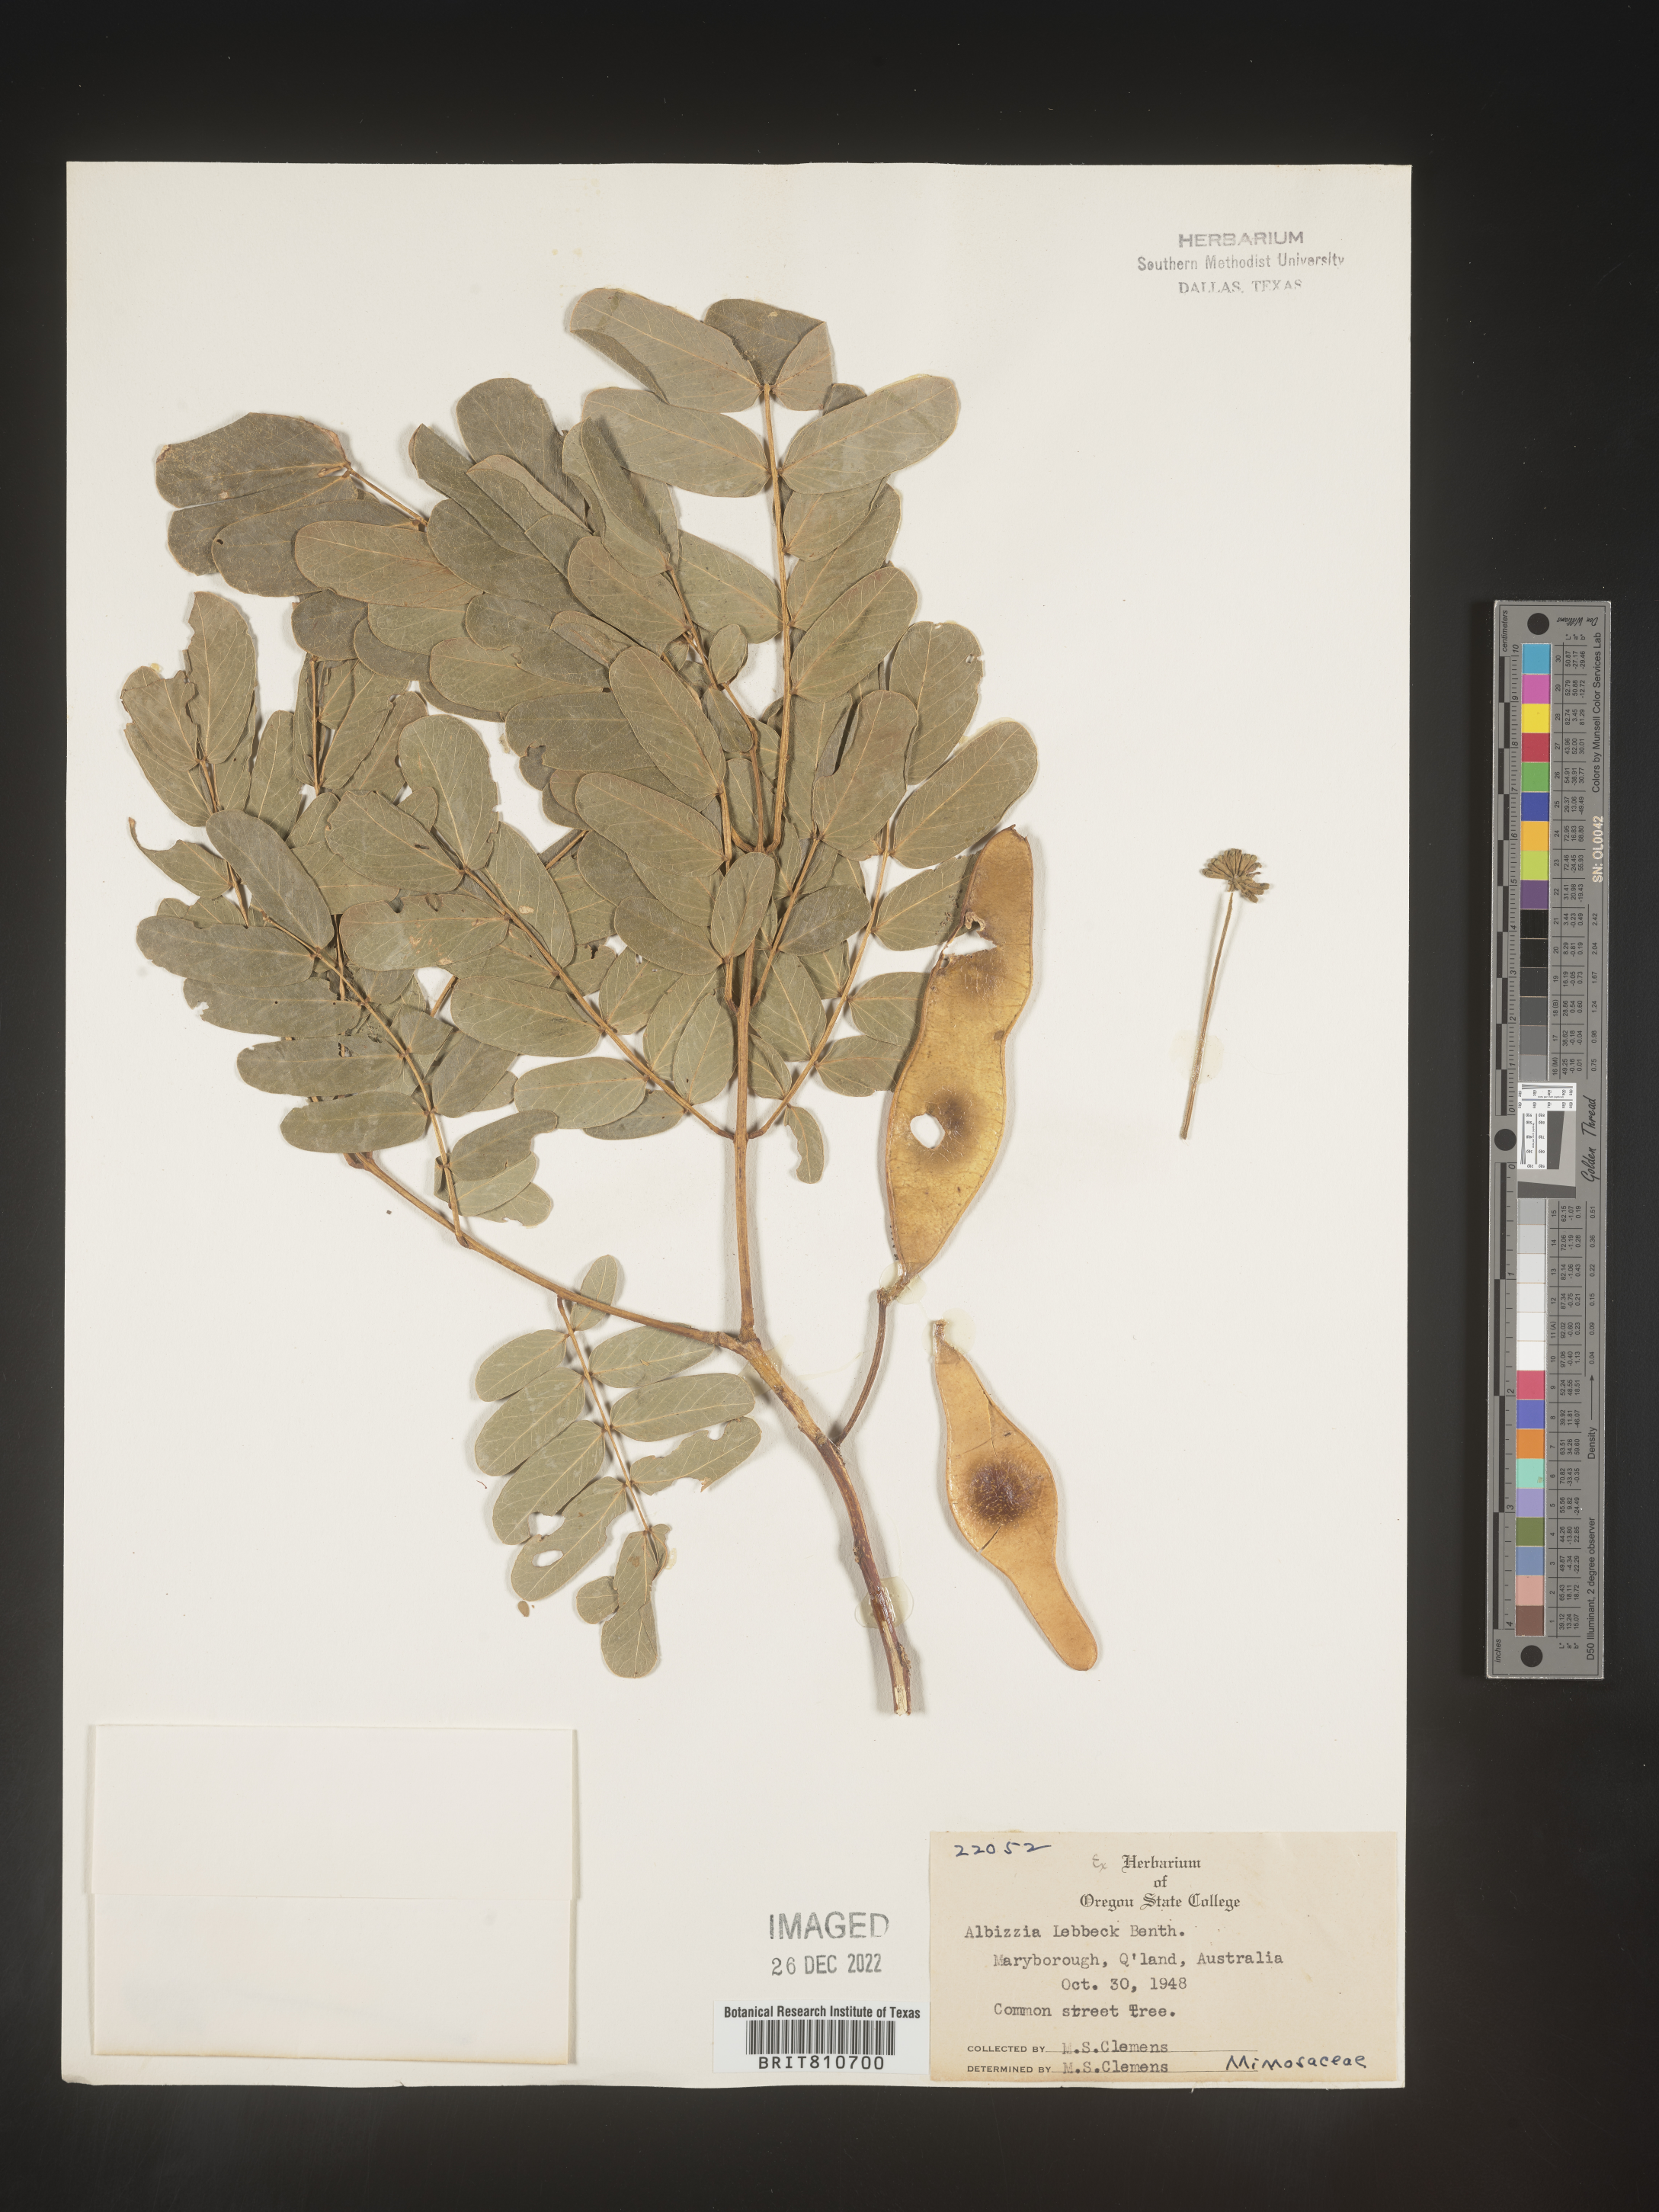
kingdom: Plantae
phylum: Tracheophyta
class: Magnoliopsida
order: Fabales
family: Fabaceae
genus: Albizia
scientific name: Albizia
